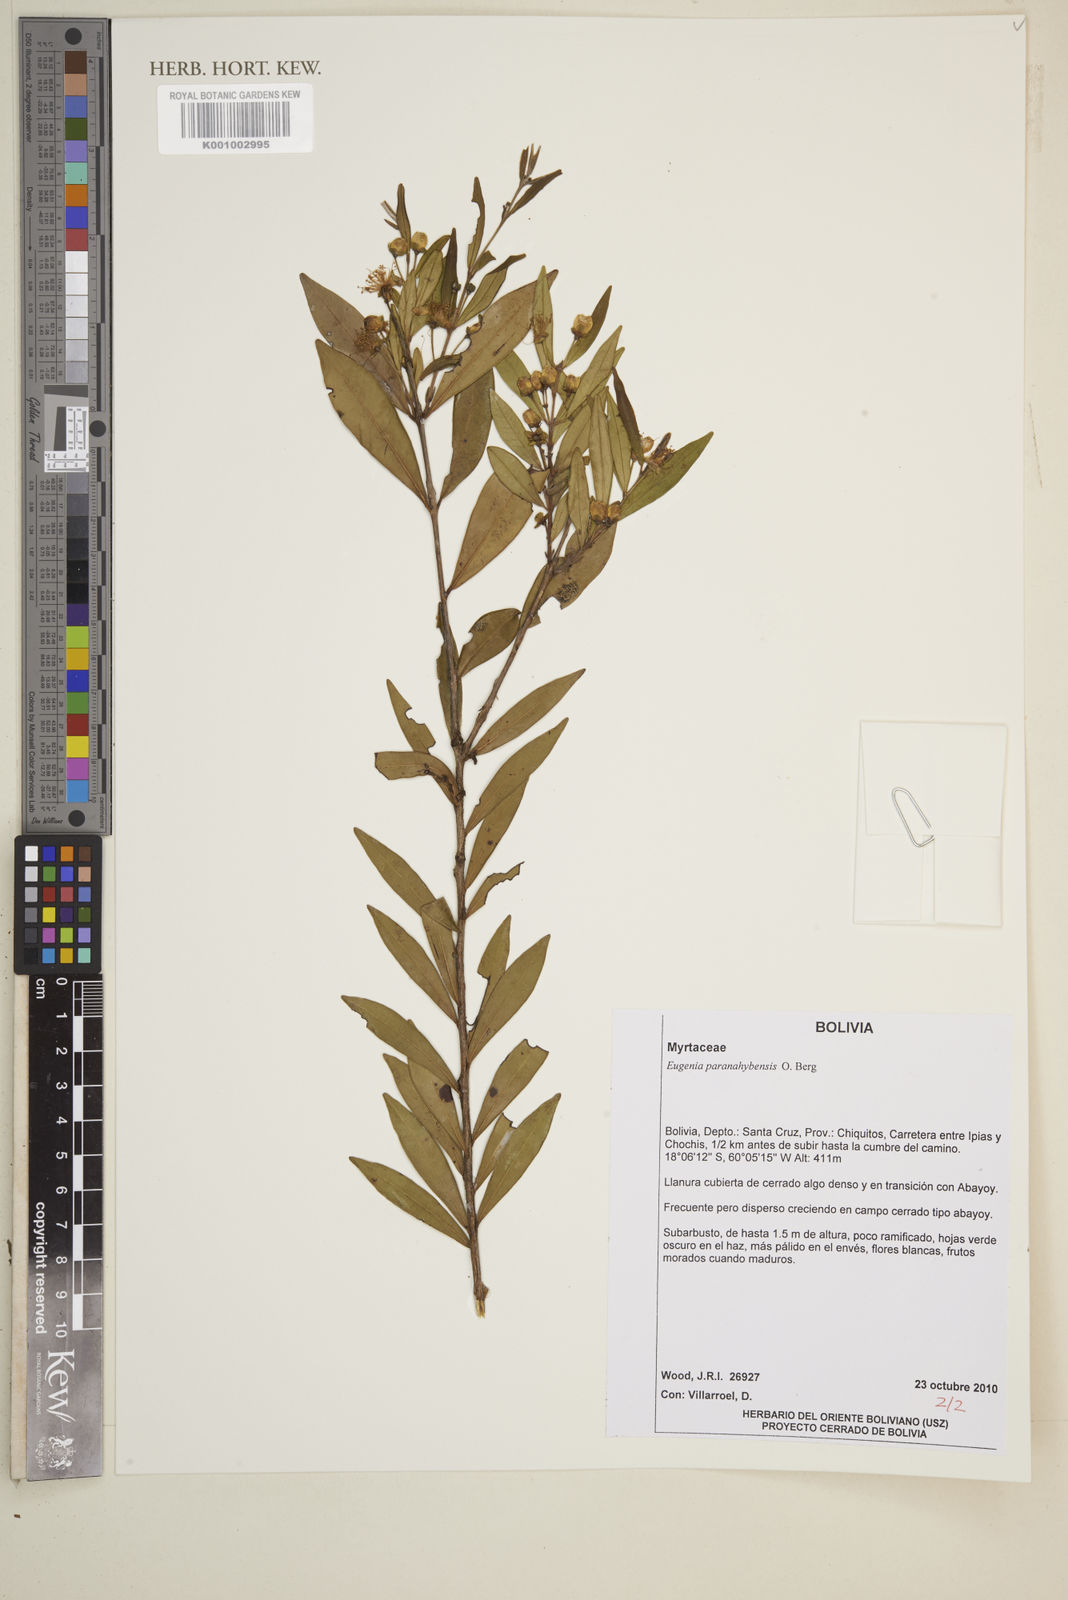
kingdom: Plantae
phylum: Tracheophyta
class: Magnoliopsida
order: Myrtales
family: Myrtaceae
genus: Eugenia
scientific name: Eugenia paranahybensis
